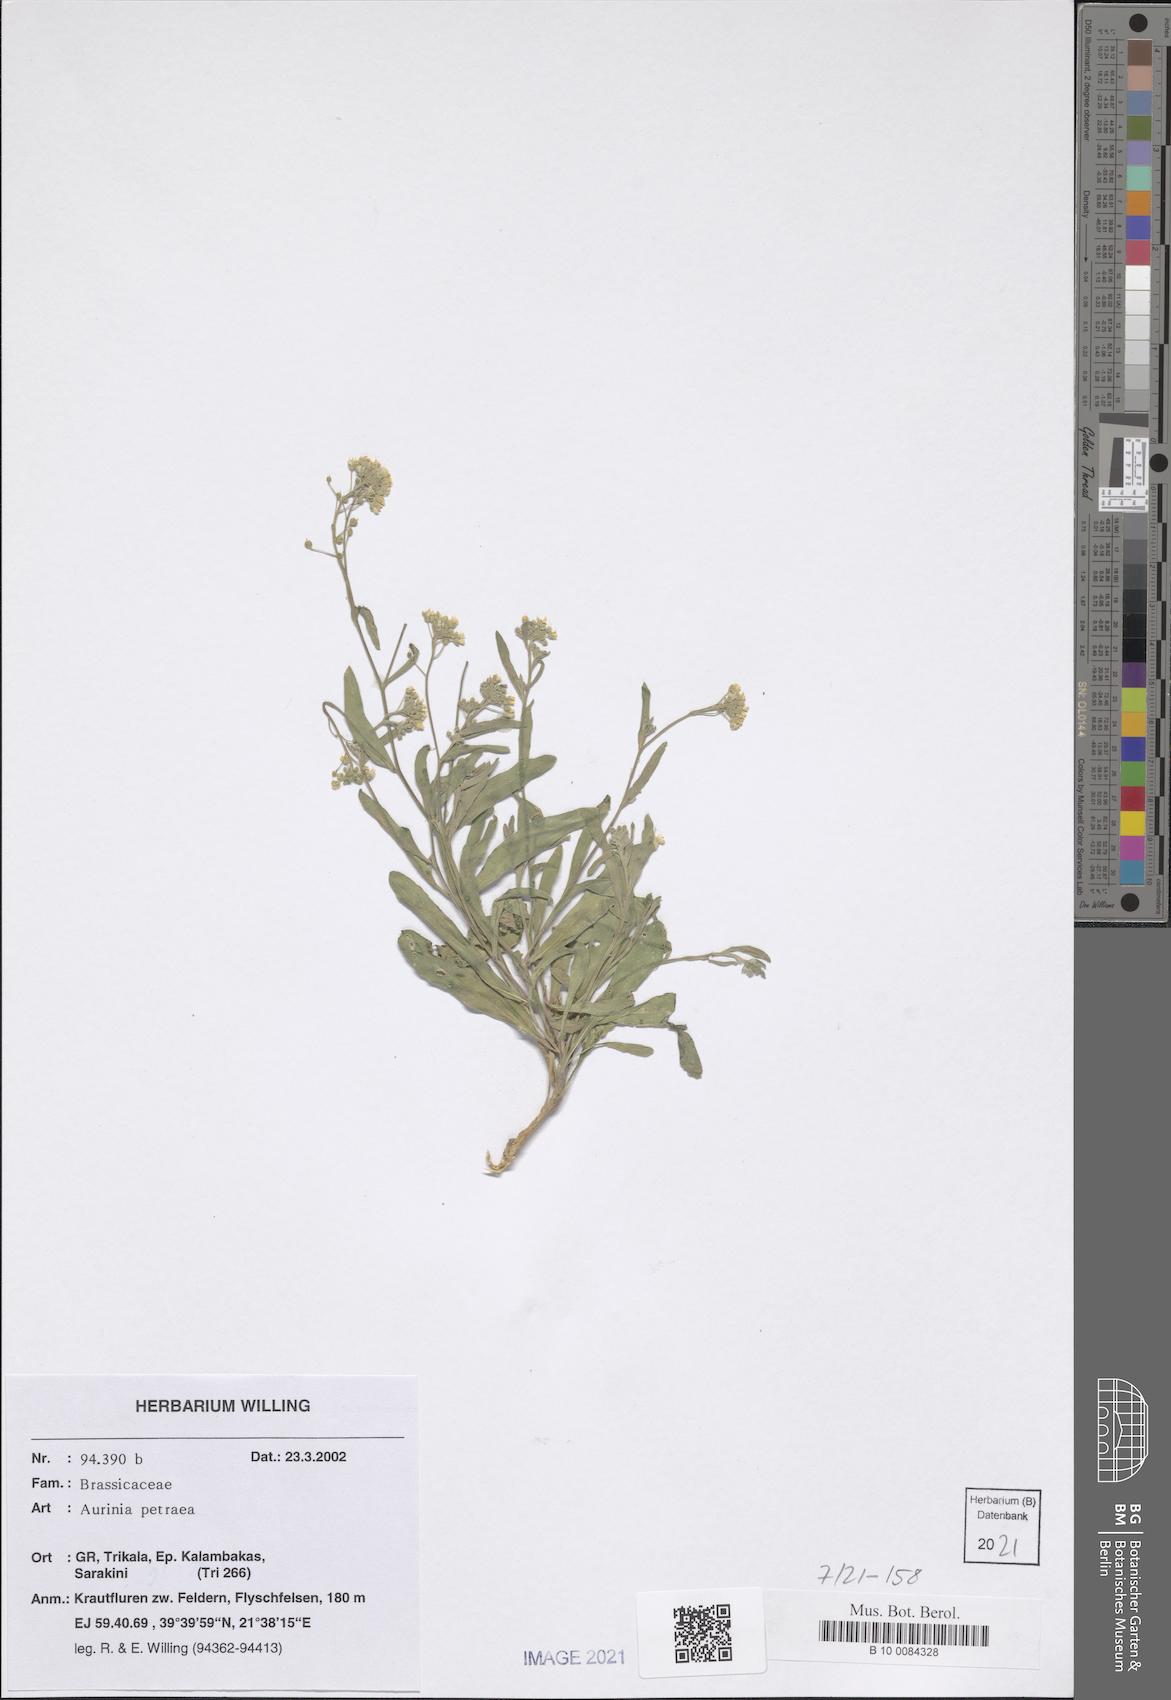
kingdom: Plantae
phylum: Tracheophyta
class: Magnoliopsida
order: Brassicales
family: Brassicaceae
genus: Aurinia
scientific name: Aurinia petraea
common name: Goldentuft
